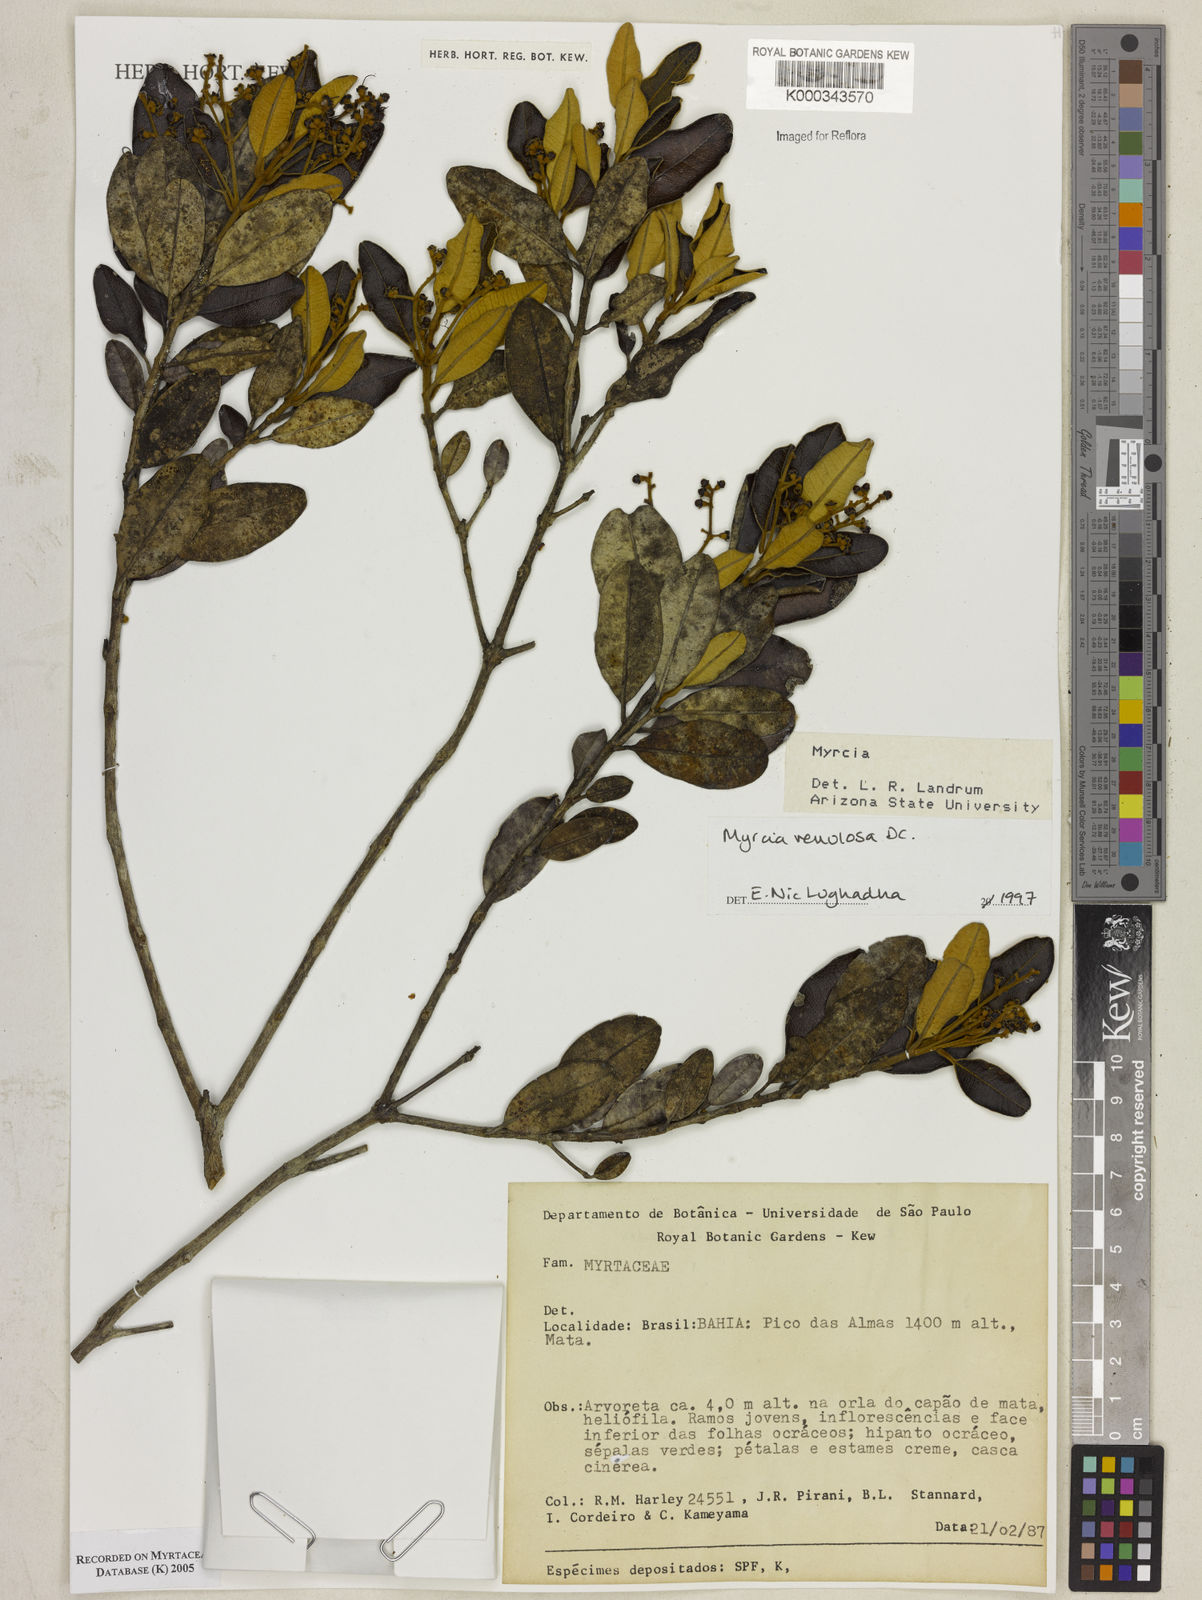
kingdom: Plantae
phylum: Tracheophyta
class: Magnoliopsida
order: Myrtales
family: Myrtaceae
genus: Myrcia
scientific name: Myrcia venulosa
